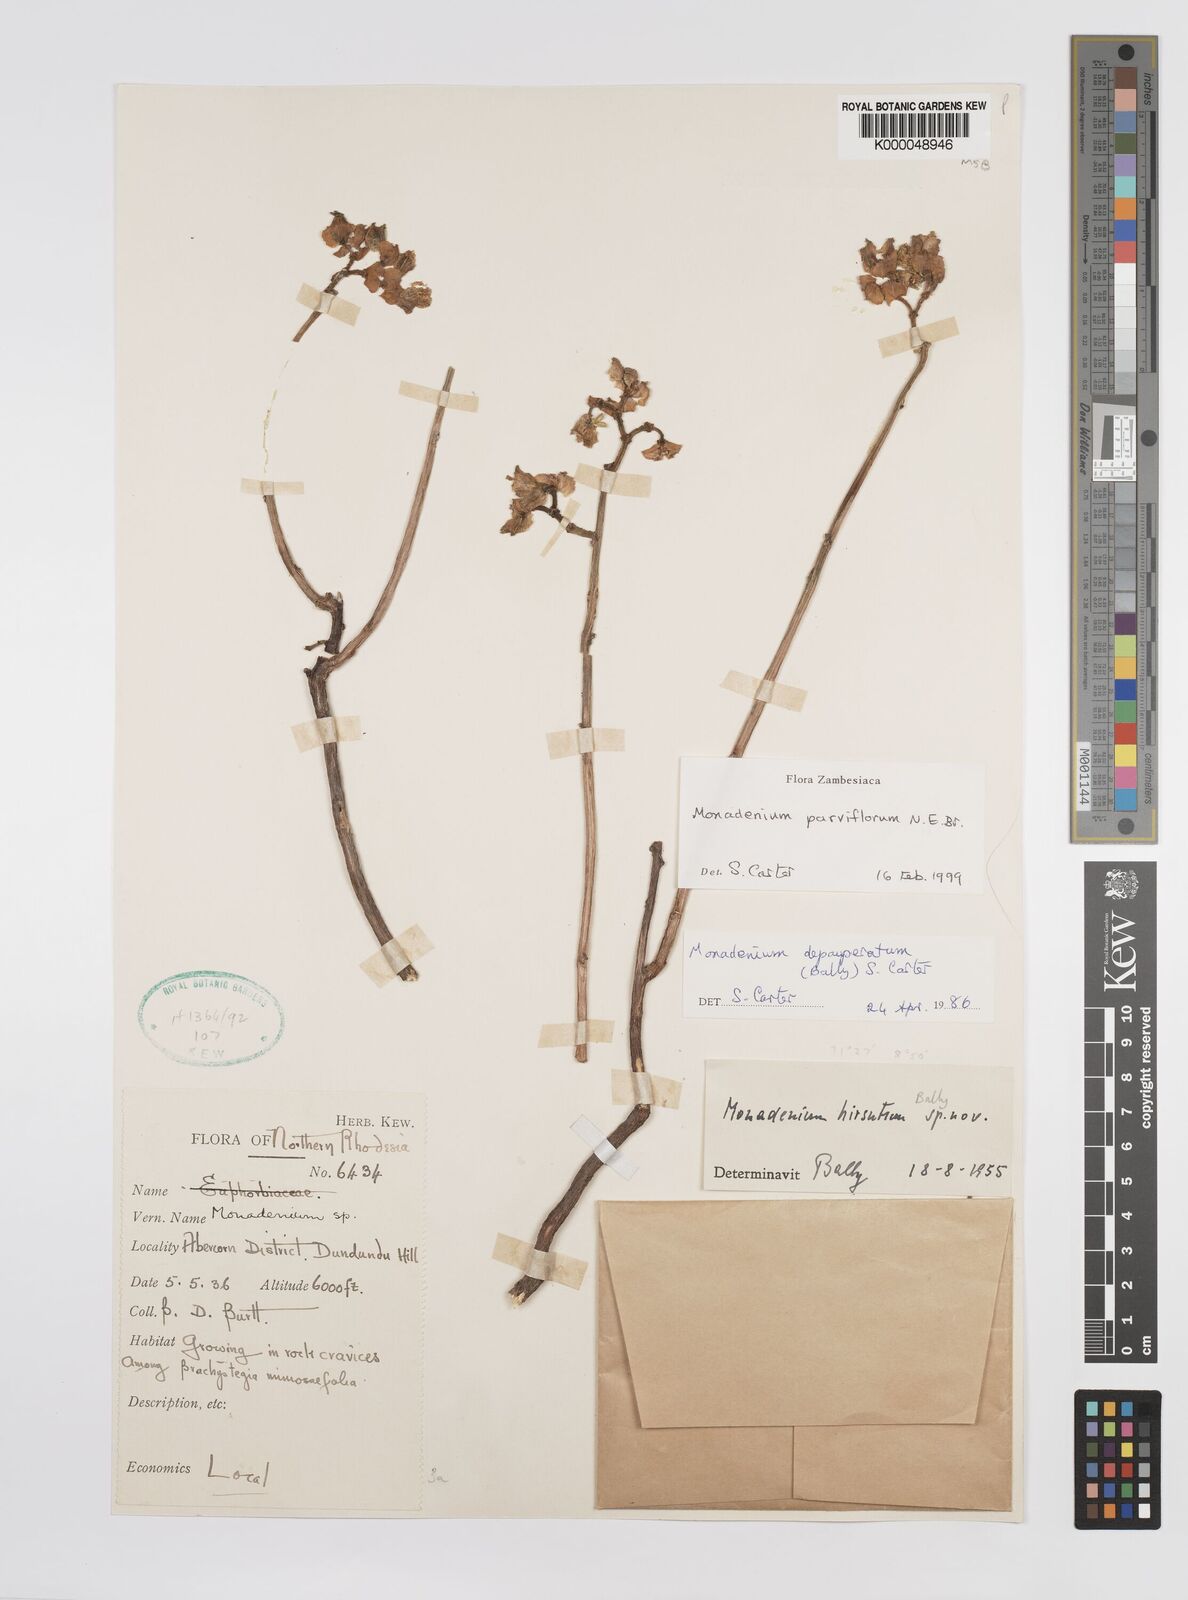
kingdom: Plantae
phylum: Tracheophyta
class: Magnoliopsida
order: Malpighiales
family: Euphorbiaceae
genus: Euphorbia
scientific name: Euphorbia neoparviflora
